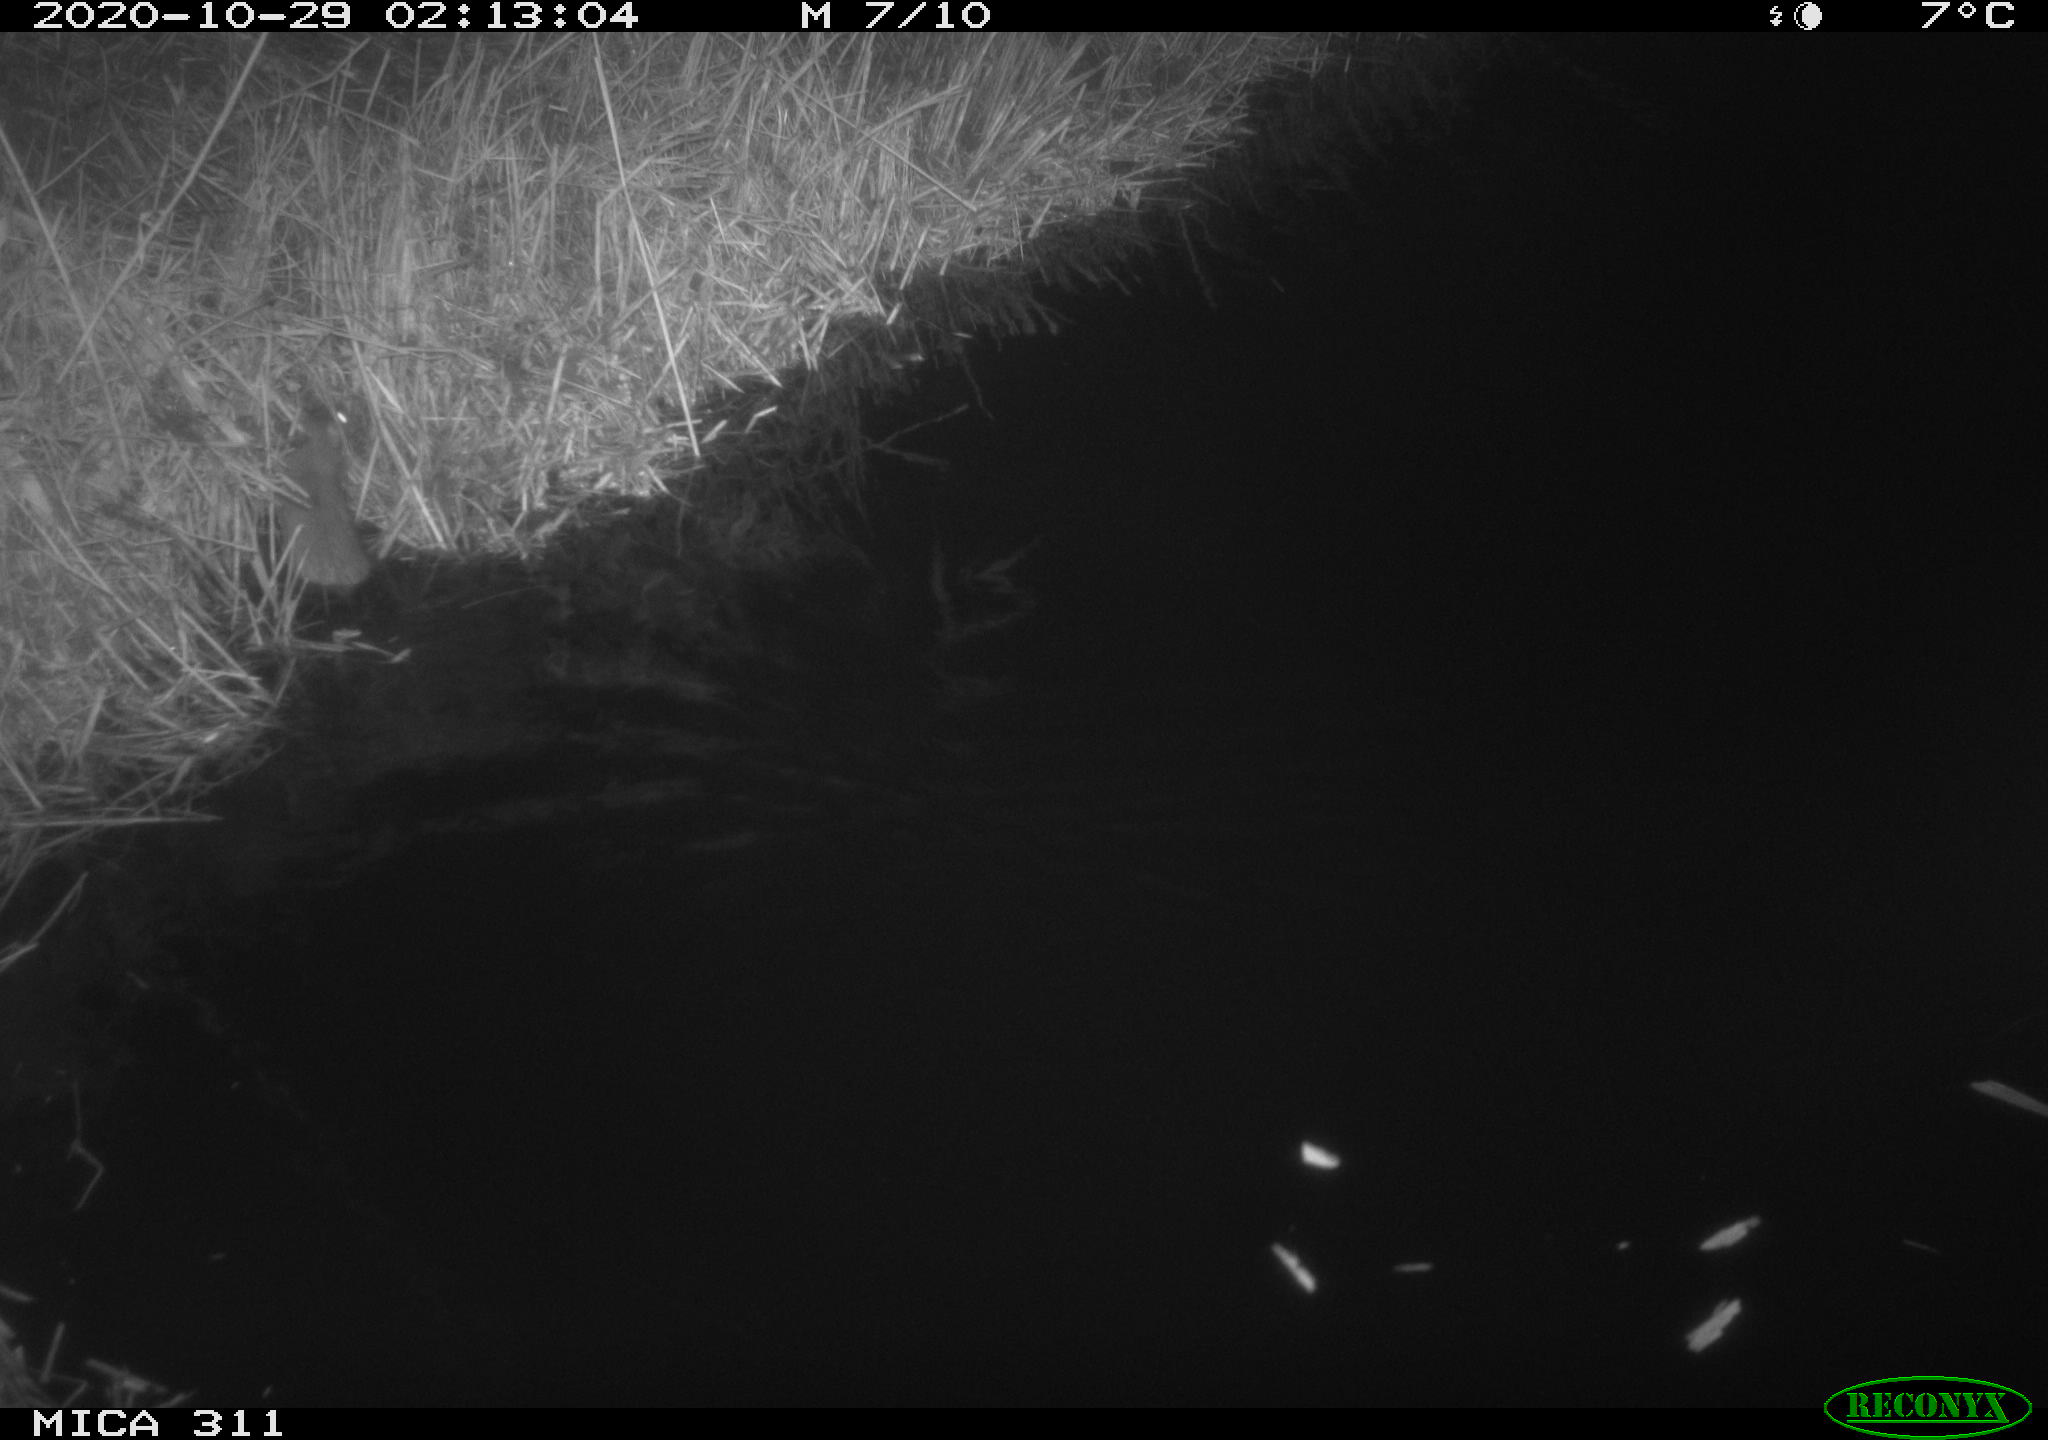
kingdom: Animalia
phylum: Chordata
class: Mammalia
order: Rodentia
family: Muridae
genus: Rattus
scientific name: Rattus norvegicus
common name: Brown rat
